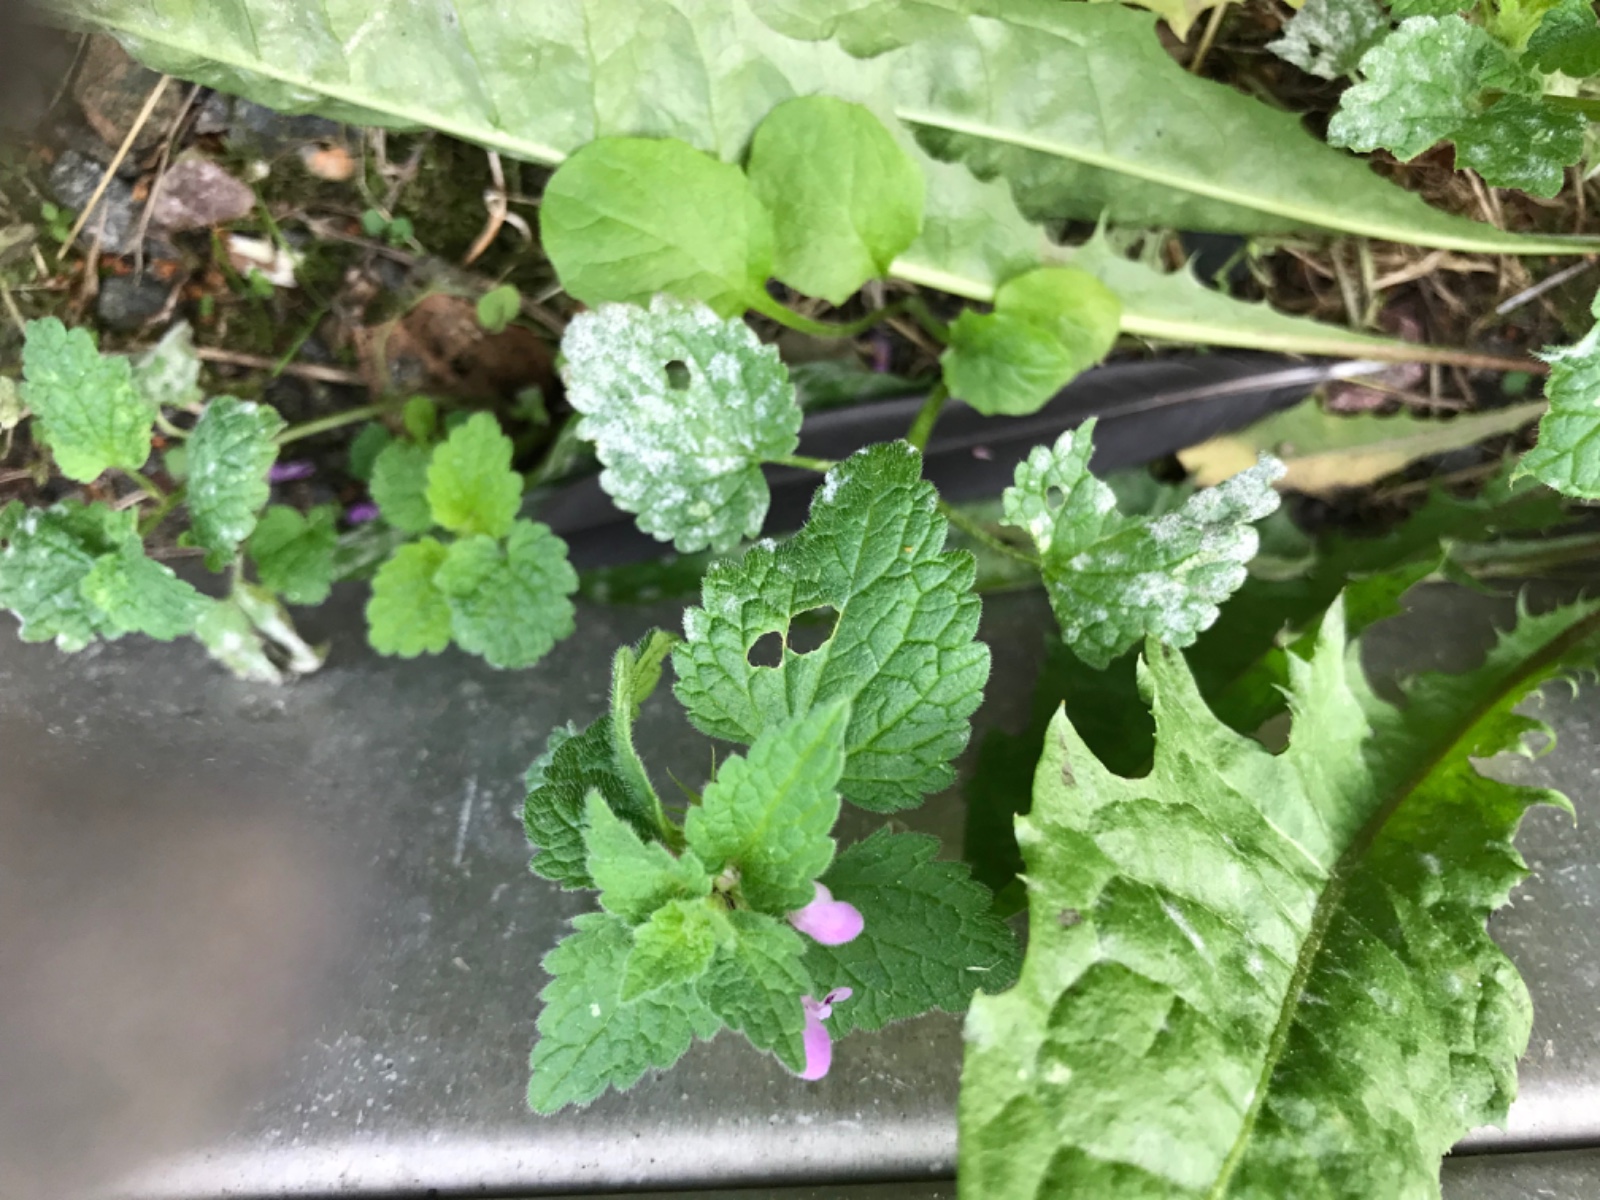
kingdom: Fungi
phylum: Ascomycota
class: Leotiomycetes
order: Helotiales
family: Erysiphaceae
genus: Neoerysiphe
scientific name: Neoerysiphe galeopsidis
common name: Mint mildew
